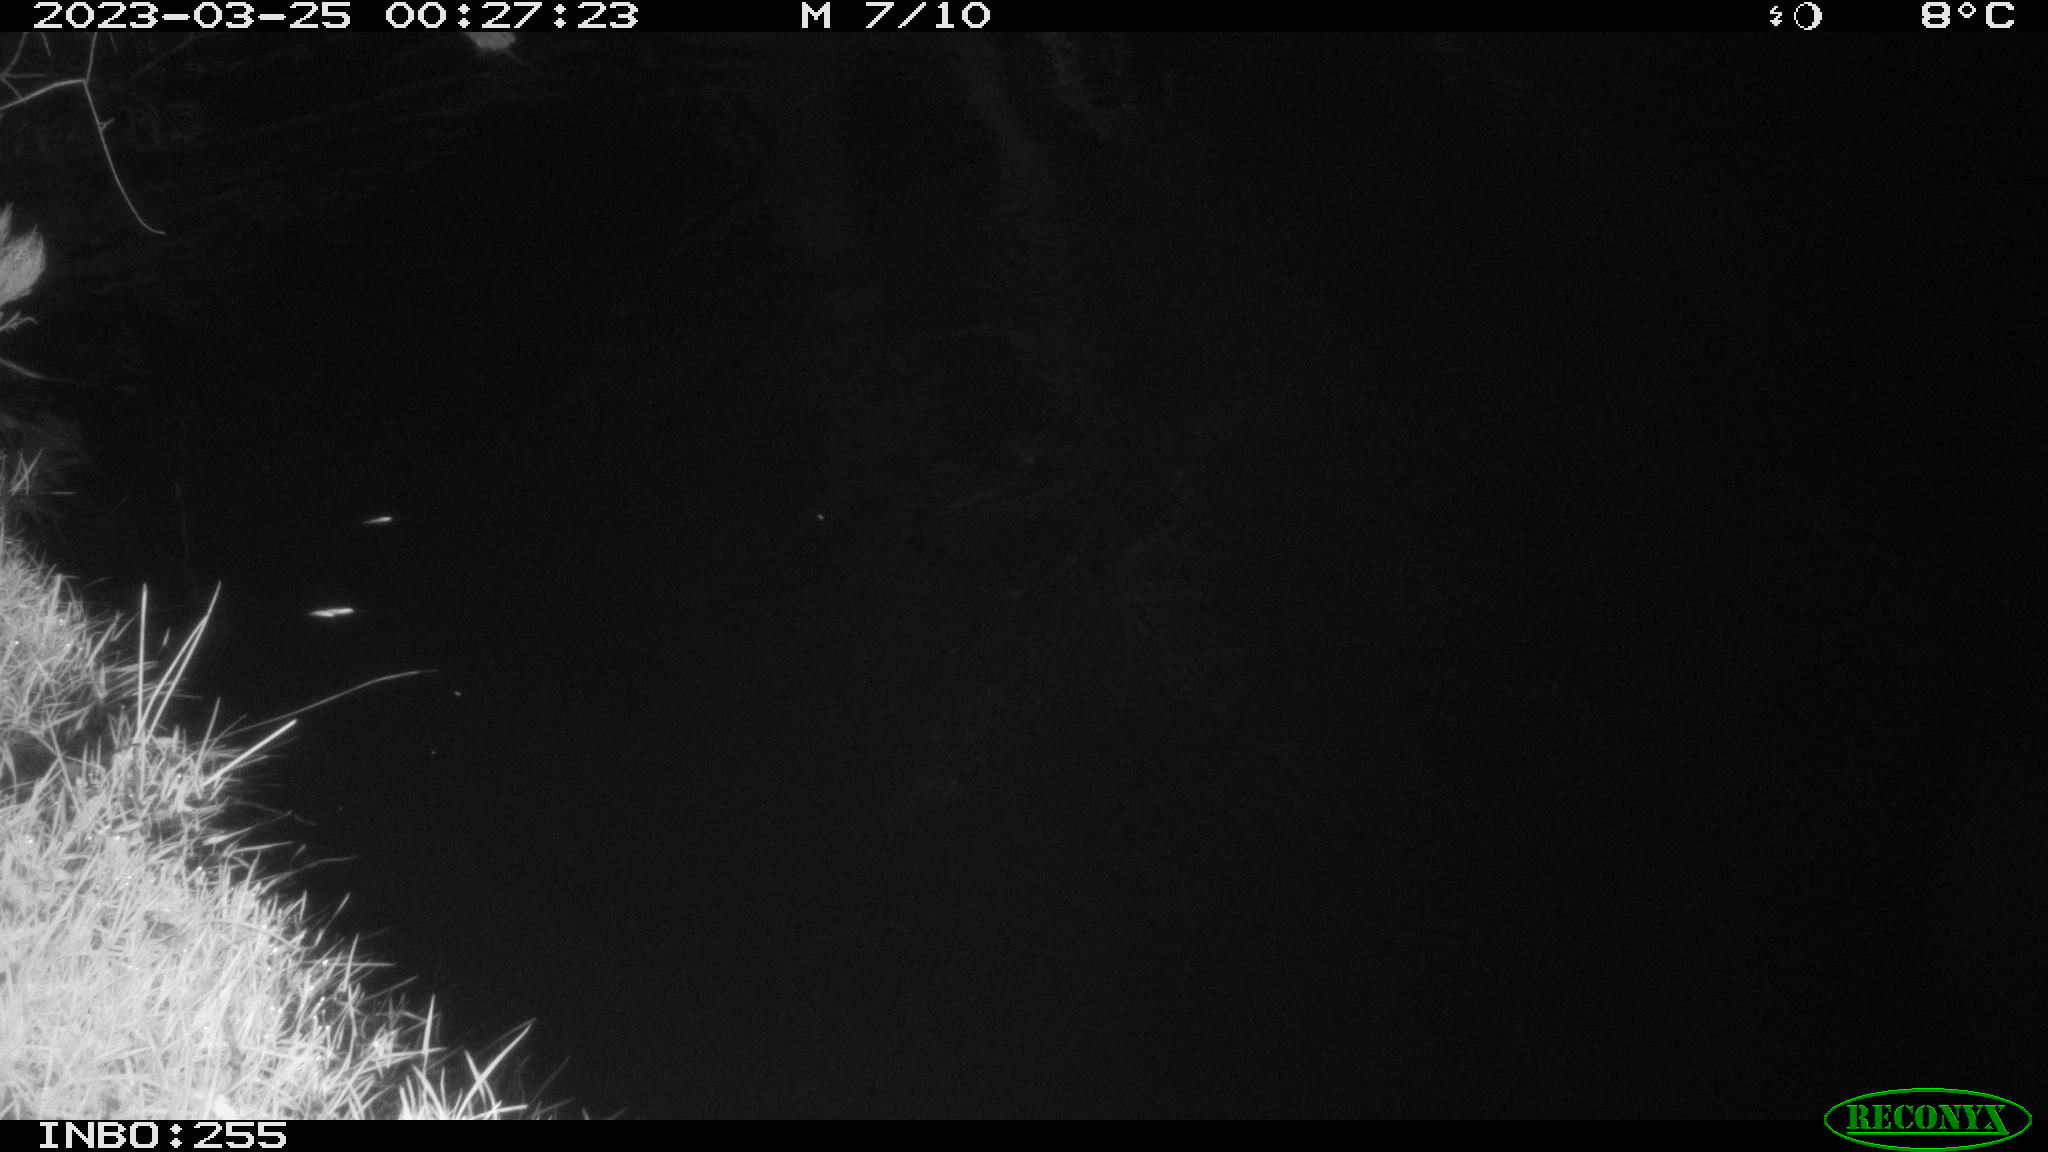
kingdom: Animalia
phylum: Chordata
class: Mammalia
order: Rodentia
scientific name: Rodentia
